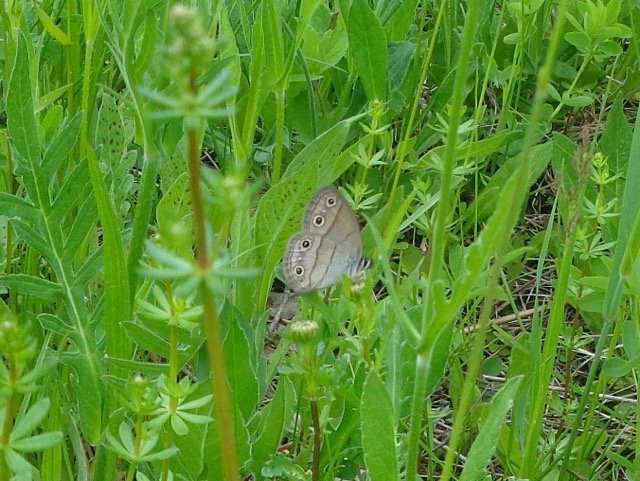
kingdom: Animalia
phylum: Arthropoda
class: Insecta
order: Lepidoptera
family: Nymphalidae
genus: Euptychia
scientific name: Euptychia cymela
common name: Little Wood Satyr
